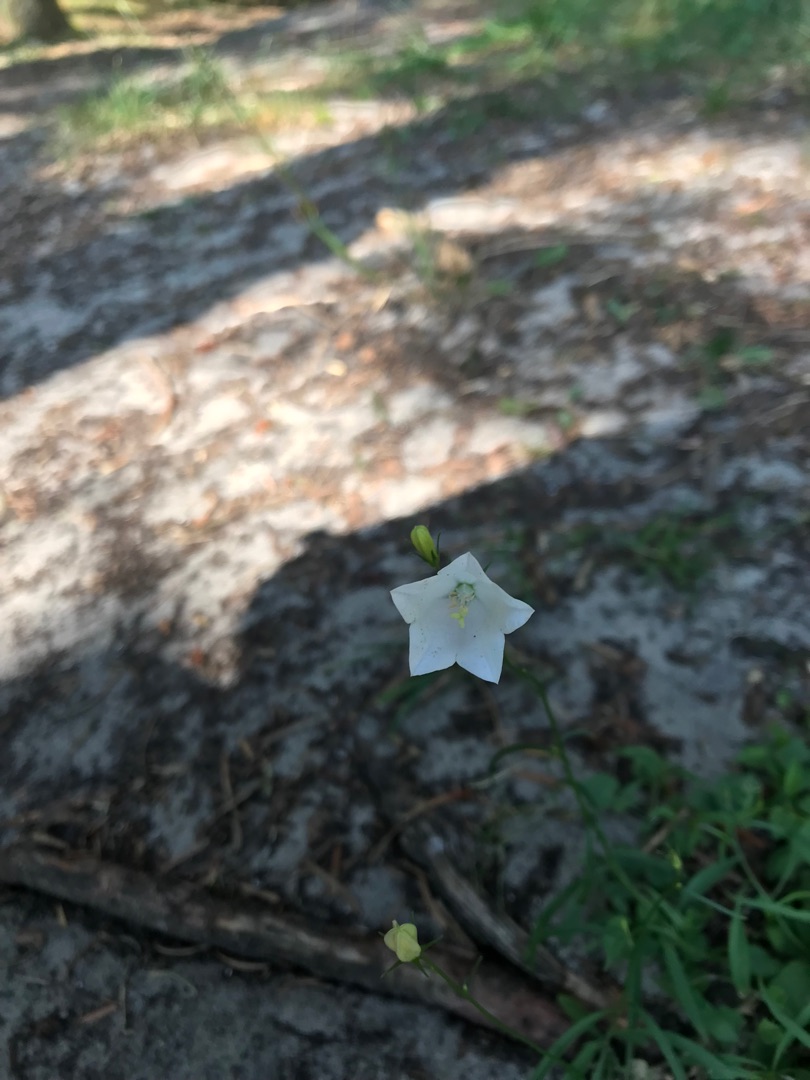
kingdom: Plantae
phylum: Tracheophyta
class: Magnoliopsida
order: Asterales
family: Campanulaceae
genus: Campanula
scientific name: Campanula rotundifolia
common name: Liden klokke
